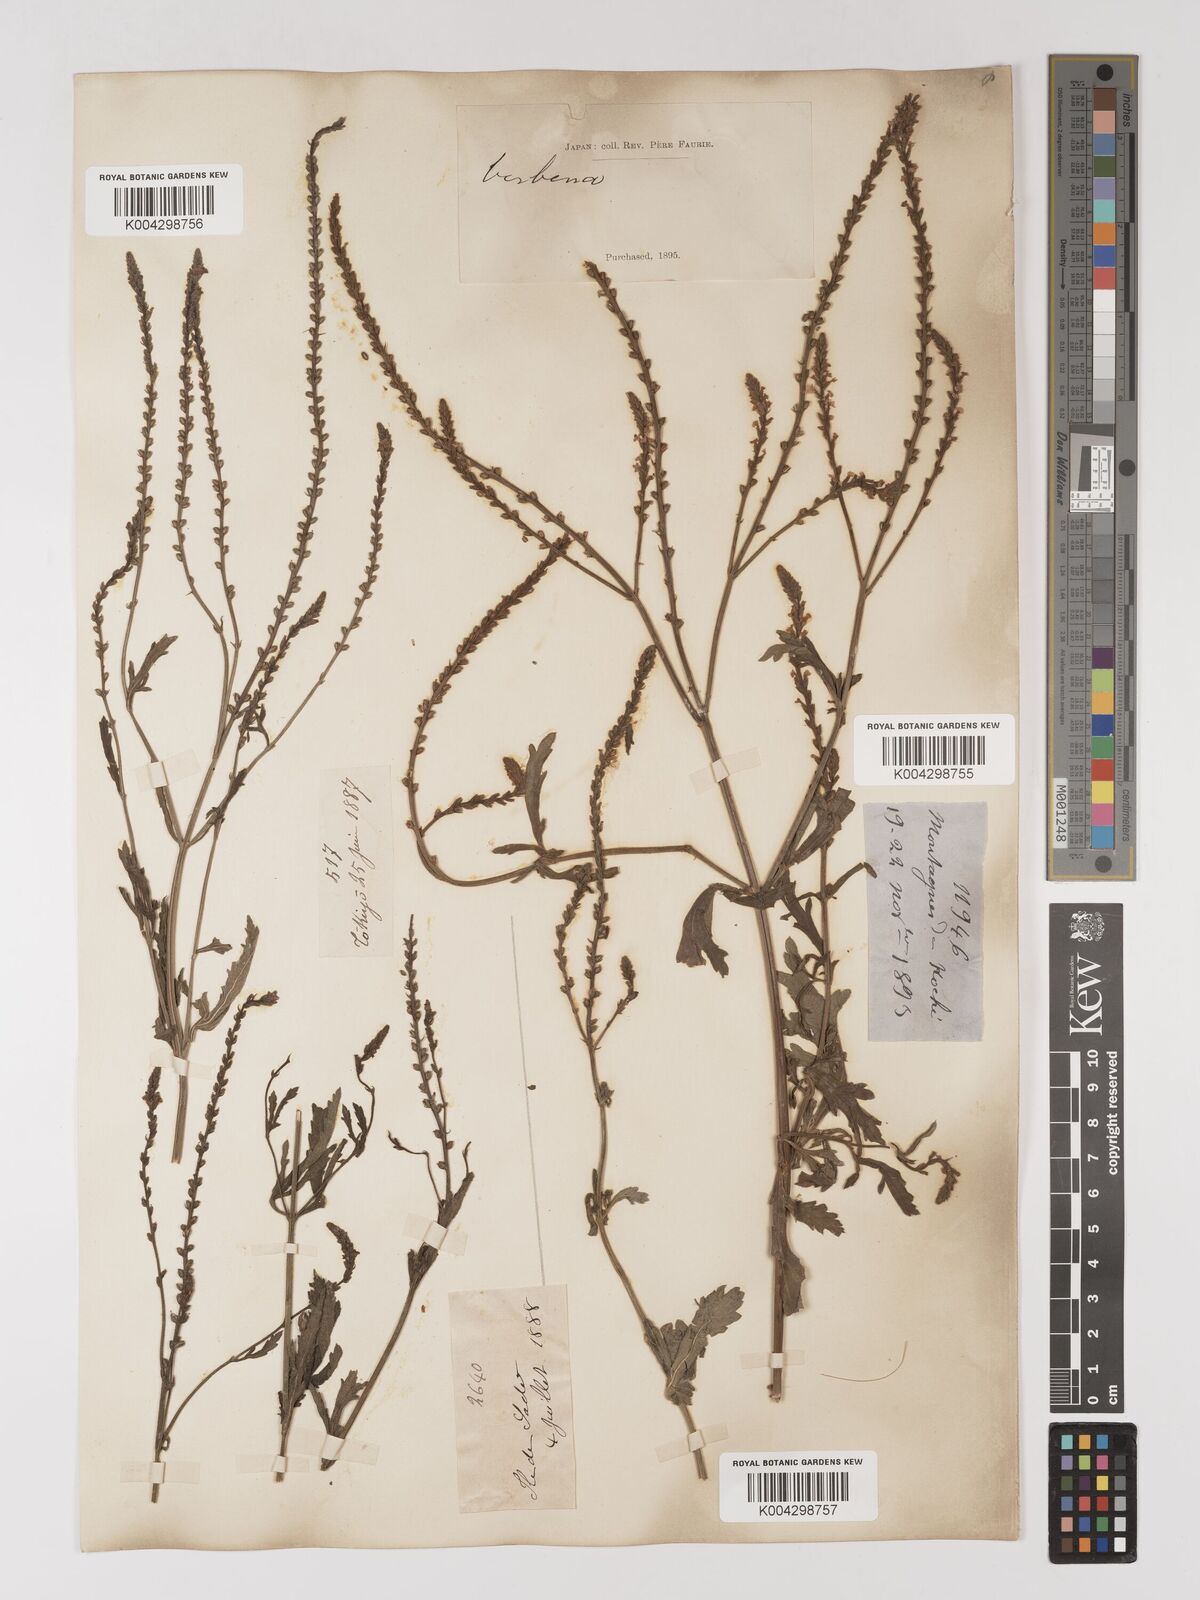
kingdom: Plantae
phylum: Tracheophyta
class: Magnoliopsida
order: Lamiales
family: Verbenaceae
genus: Verbena
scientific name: Verbena officinalis
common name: Vervain
